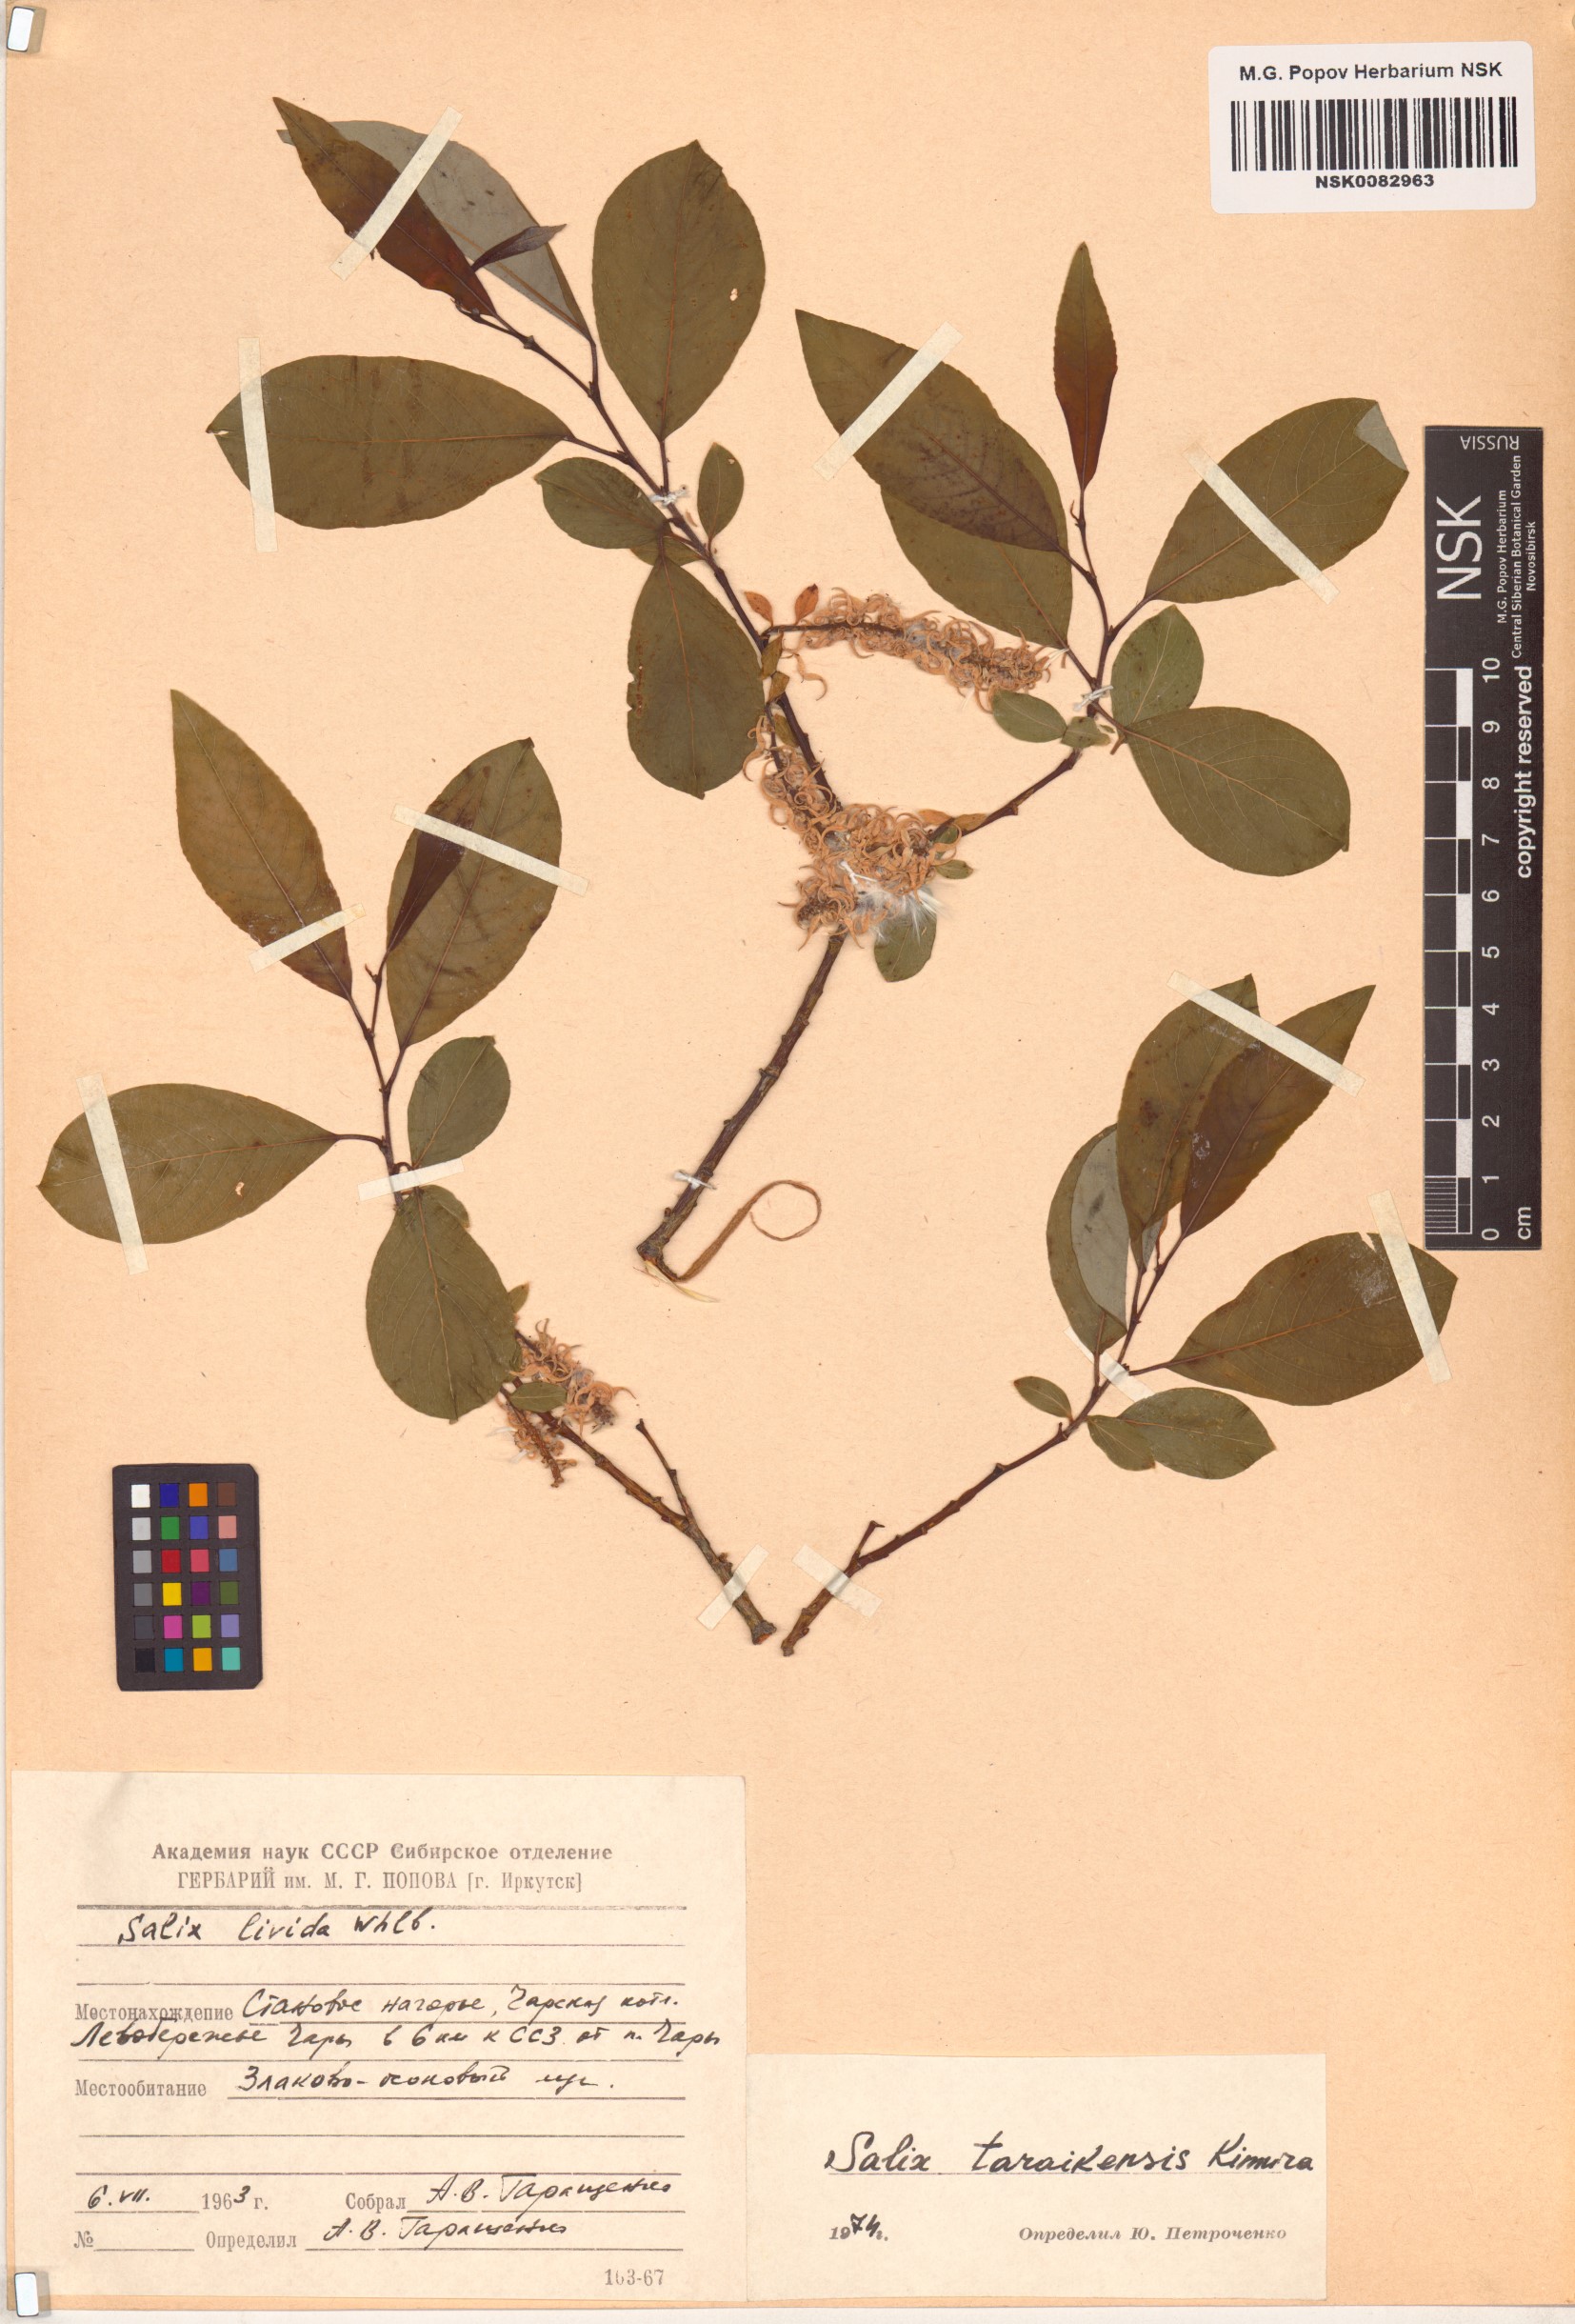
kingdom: Plantae
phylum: Tracheophyta
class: Magnoliopsida
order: Malpighiales
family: Salicaceae
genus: Salix
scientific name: Salix taraikensis
